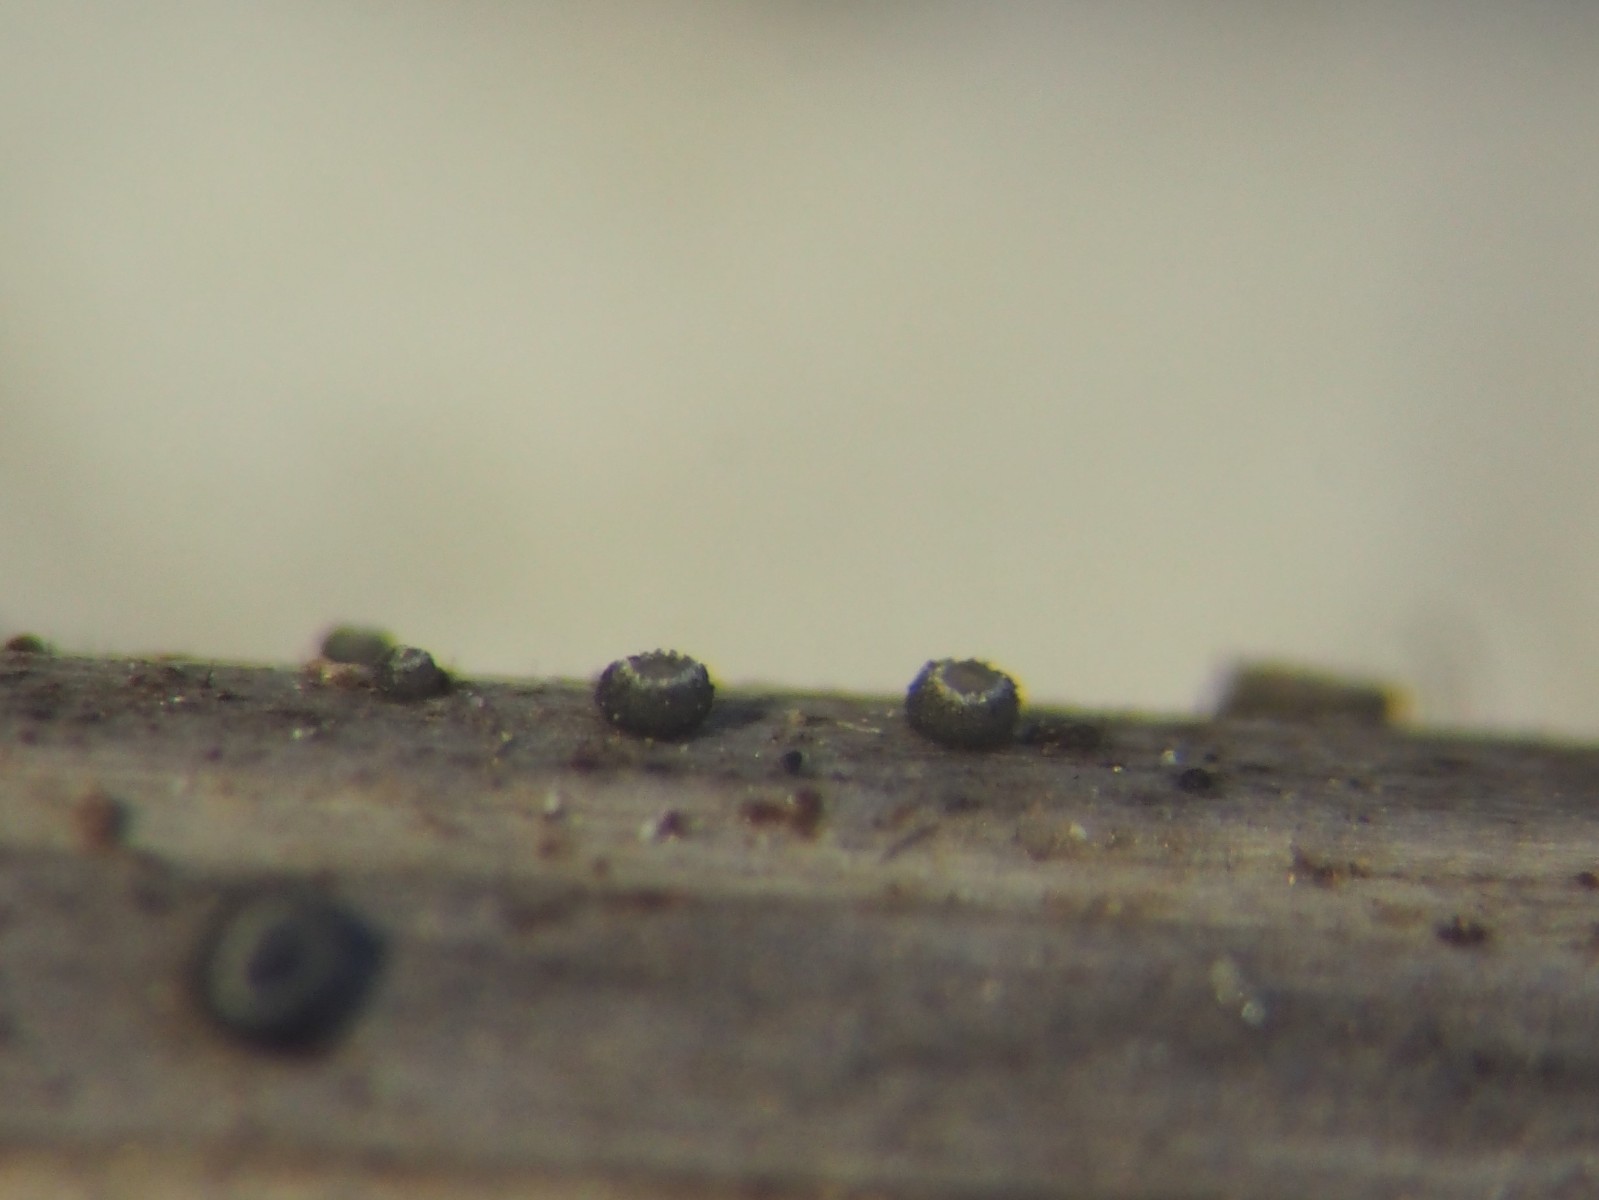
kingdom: Fungi
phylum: Ascomycota
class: Leotiomycetes
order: Helotiales
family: Ploettnerulaceae
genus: Pyrenopeziza
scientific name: Pyrenopeziza mercurialis
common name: bingelurt-kerneskive
